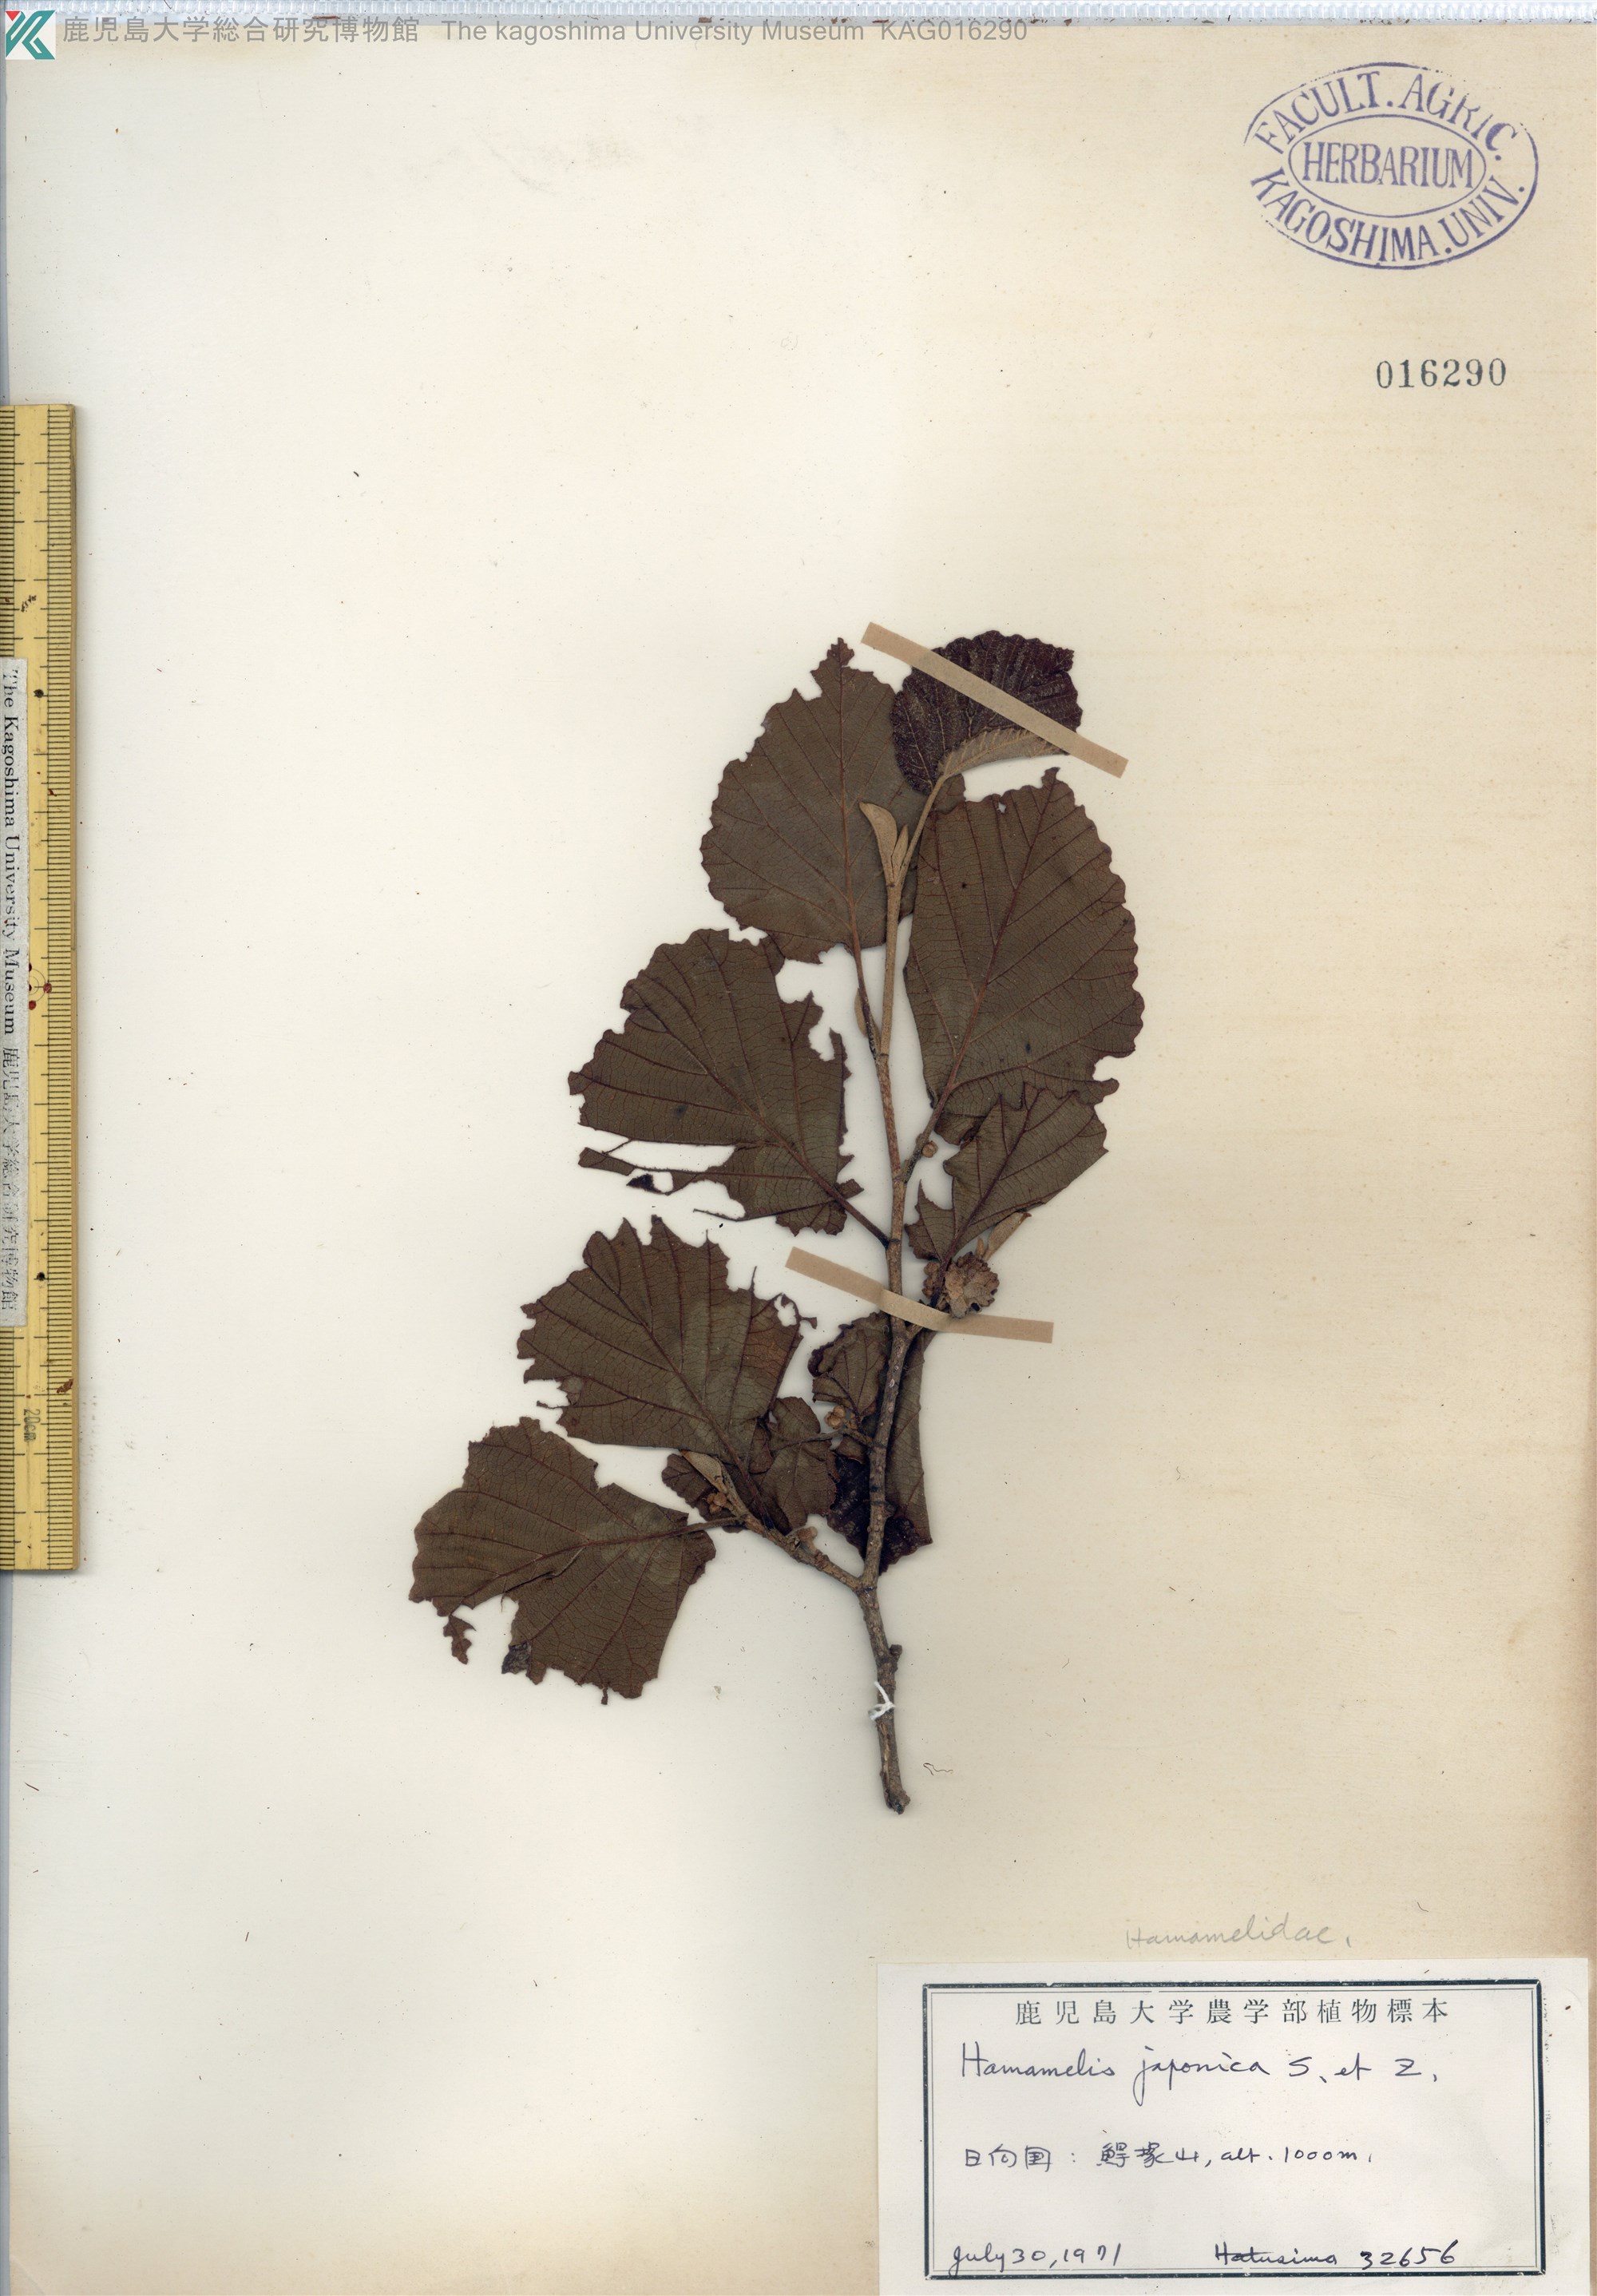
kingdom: Plantae
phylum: Tracheophyta
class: Magnoliopsida
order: Saxifragales
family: Hamamelidaceae
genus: Hamamelis
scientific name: Hamamelis japonica
